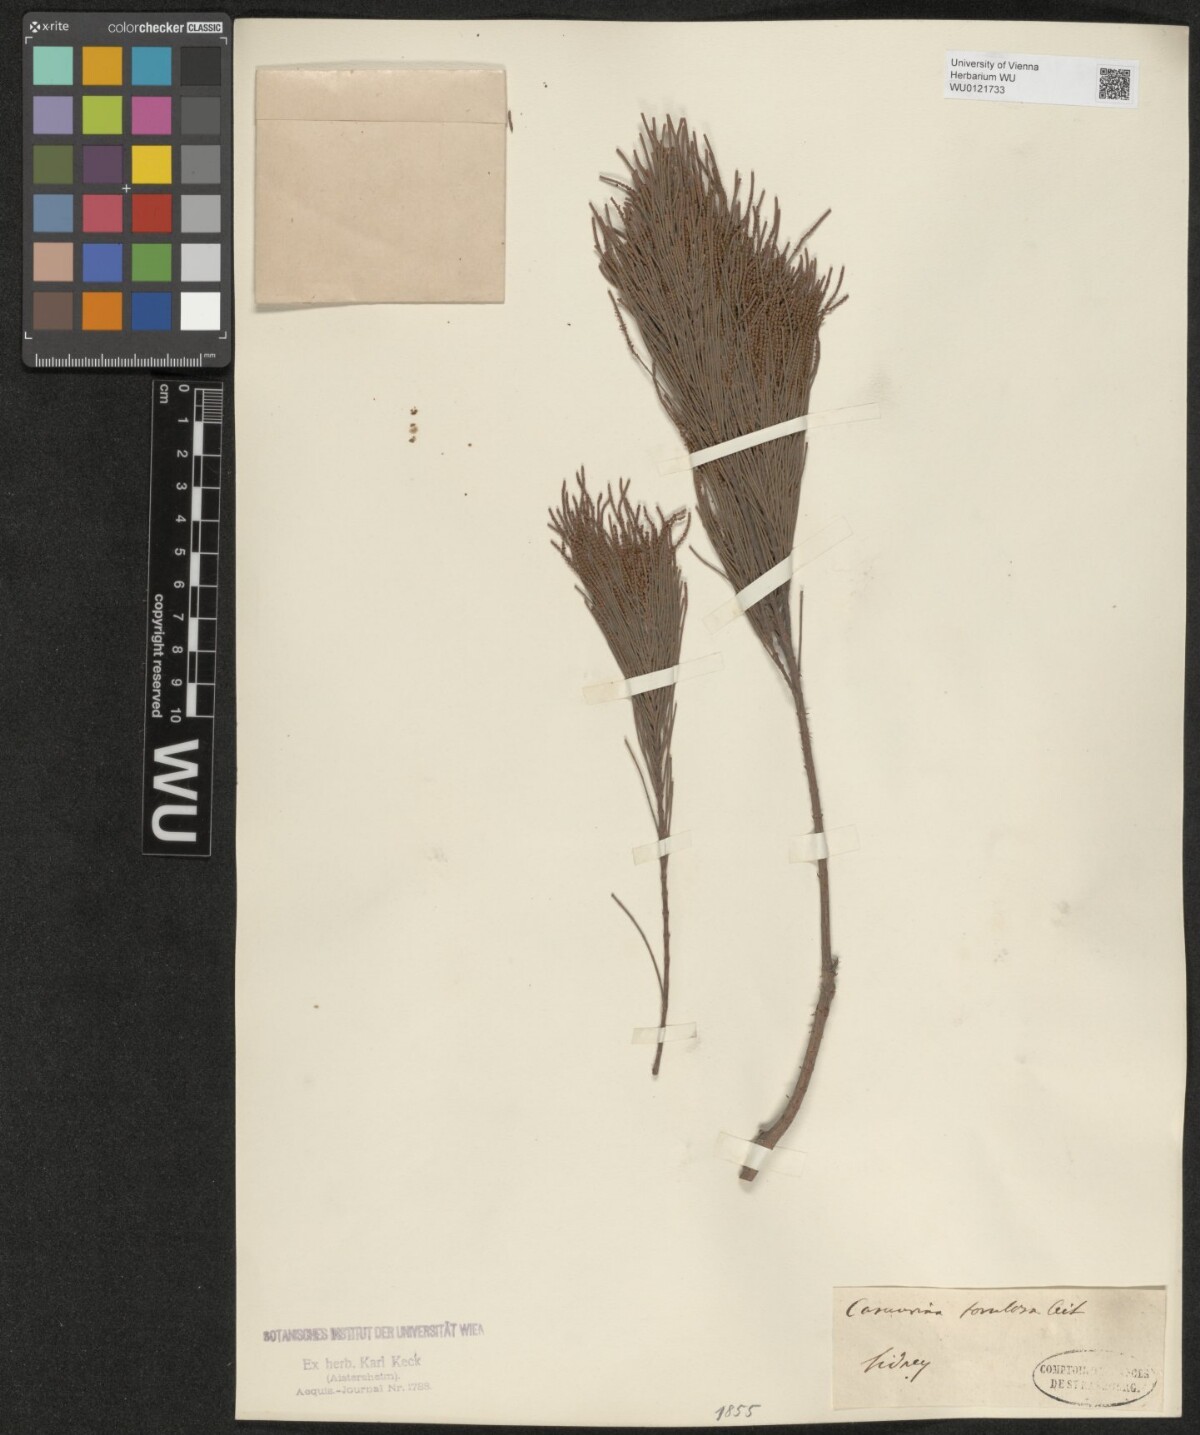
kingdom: Plantae
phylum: Tracheophyta
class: Magnoliopsida
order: Fagales
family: Casuarinaceae
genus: Allocasuarina
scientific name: Allocasuarina torulosa
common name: Forest-oak
